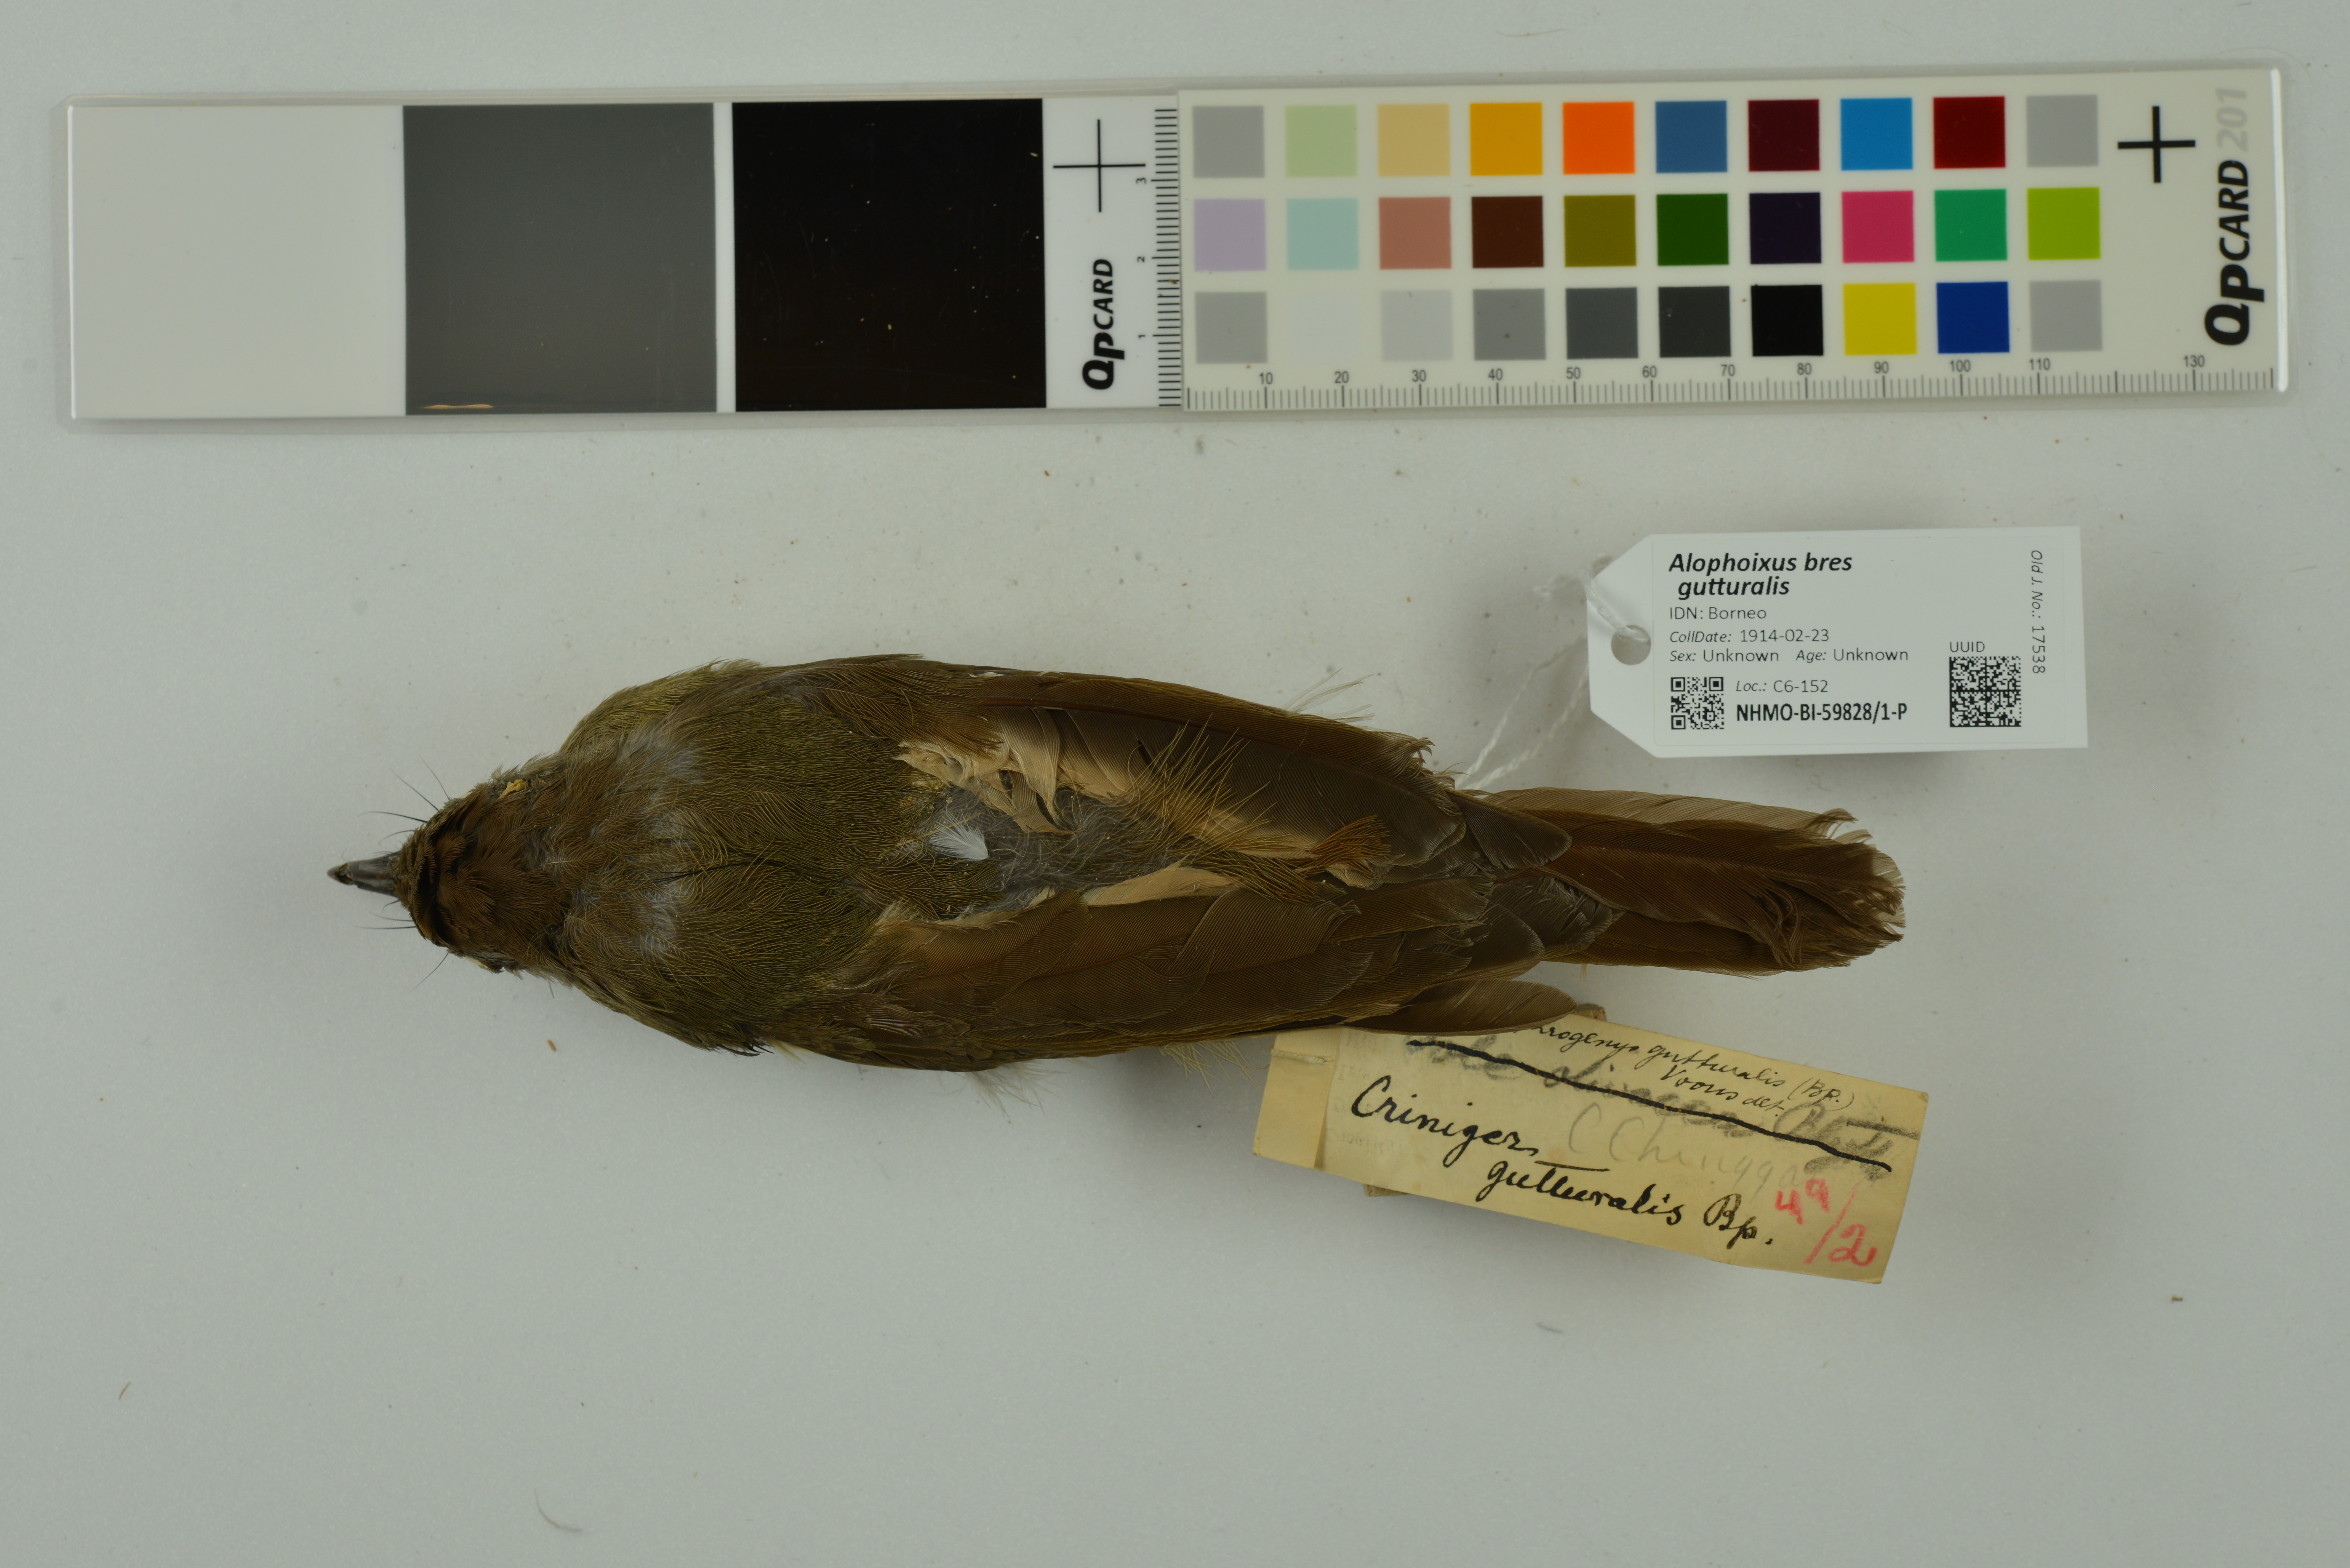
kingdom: Animalia
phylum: Chordata
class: Aves
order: Passeriformes
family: Pycnonotidae
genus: Alophoixus
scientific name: Alophoixus bres
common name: Gray-cheeked bulbul
